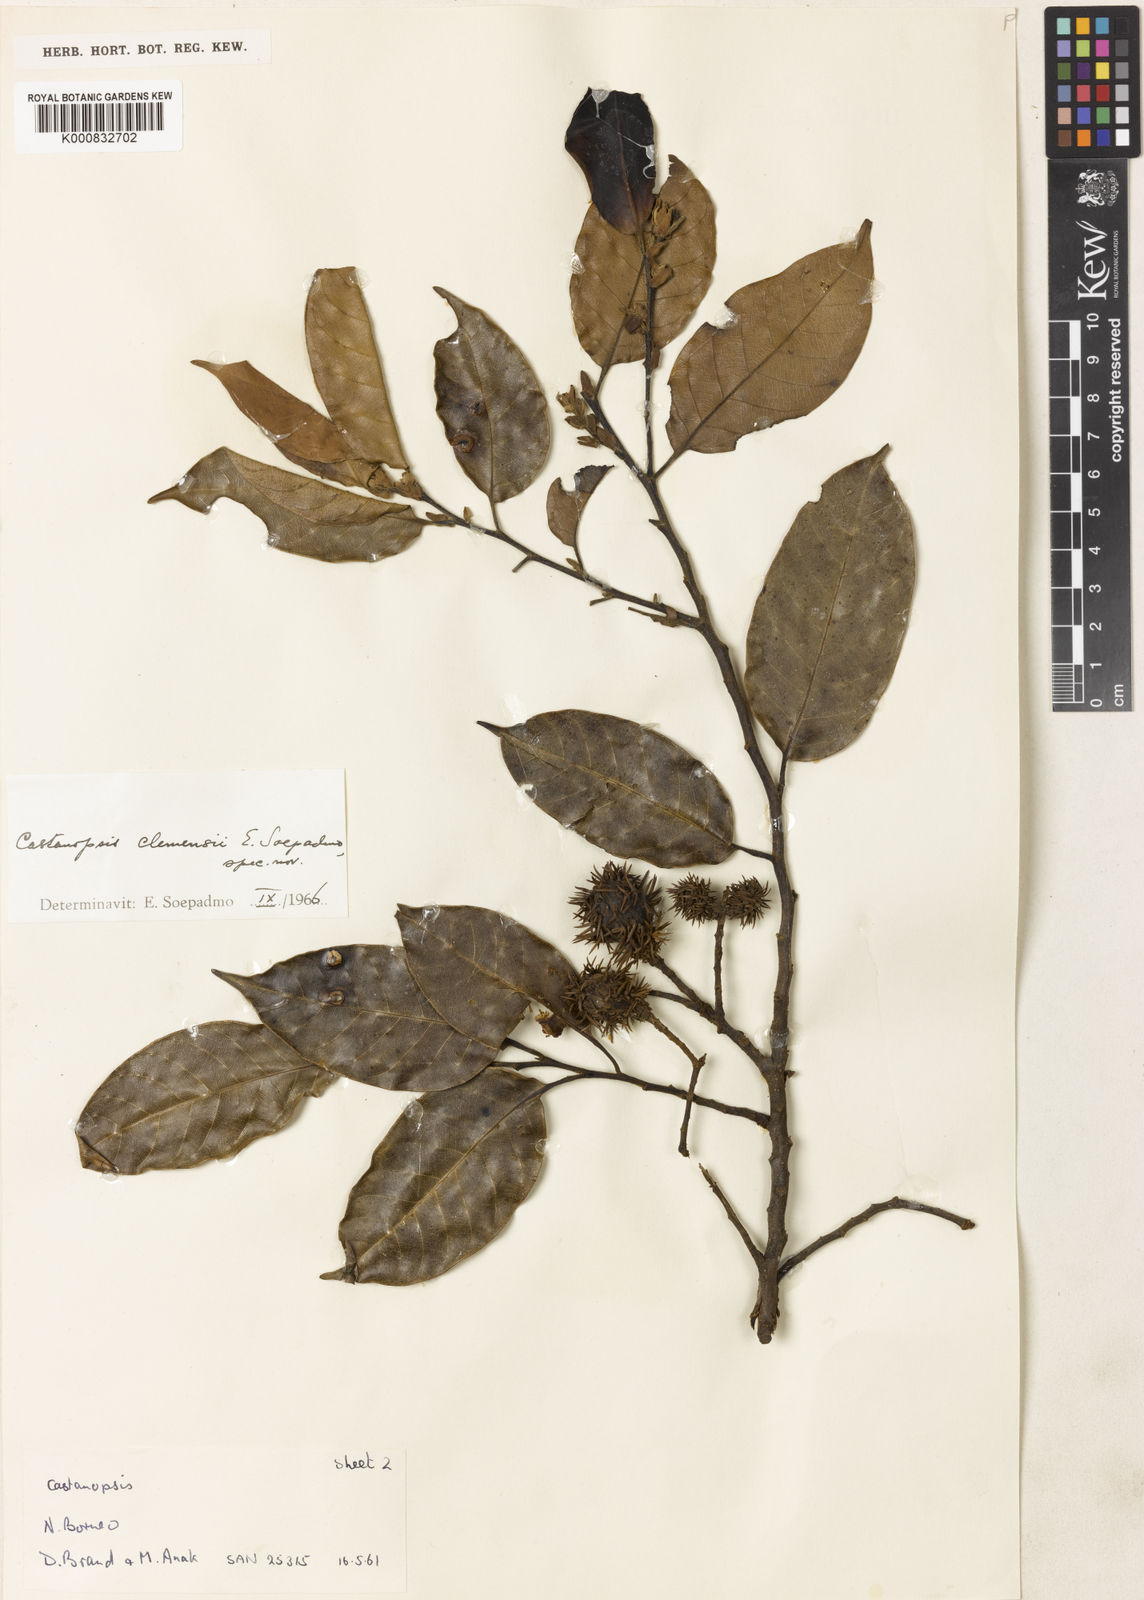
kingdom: Plantae
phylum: Tracheophyta
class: Magnoliopsida
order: Fagales
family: Fagaceae
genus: Castanopsis
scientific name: Castanopsis clemensii
